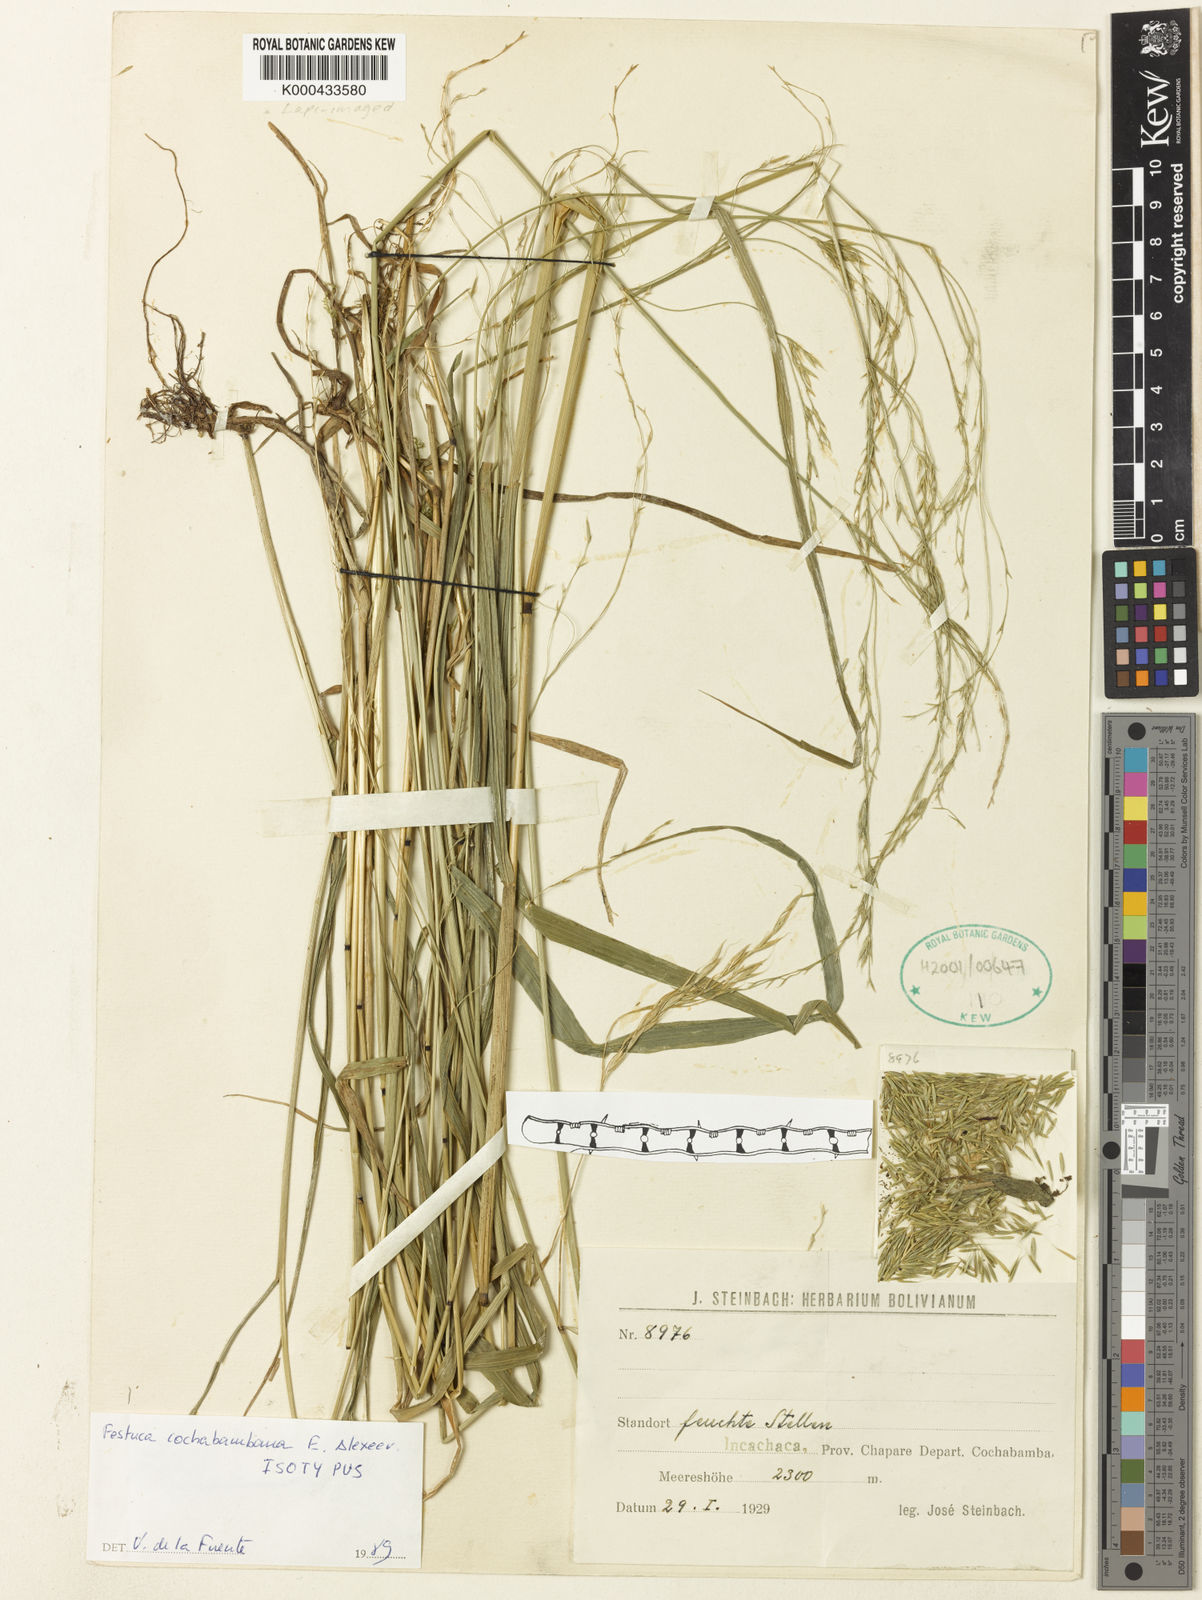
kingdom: Plantae
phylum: Tracheophyta
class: Liliopsida
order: Poales
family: Poaceae
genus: Festuca
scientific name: Festuca cochabambana
